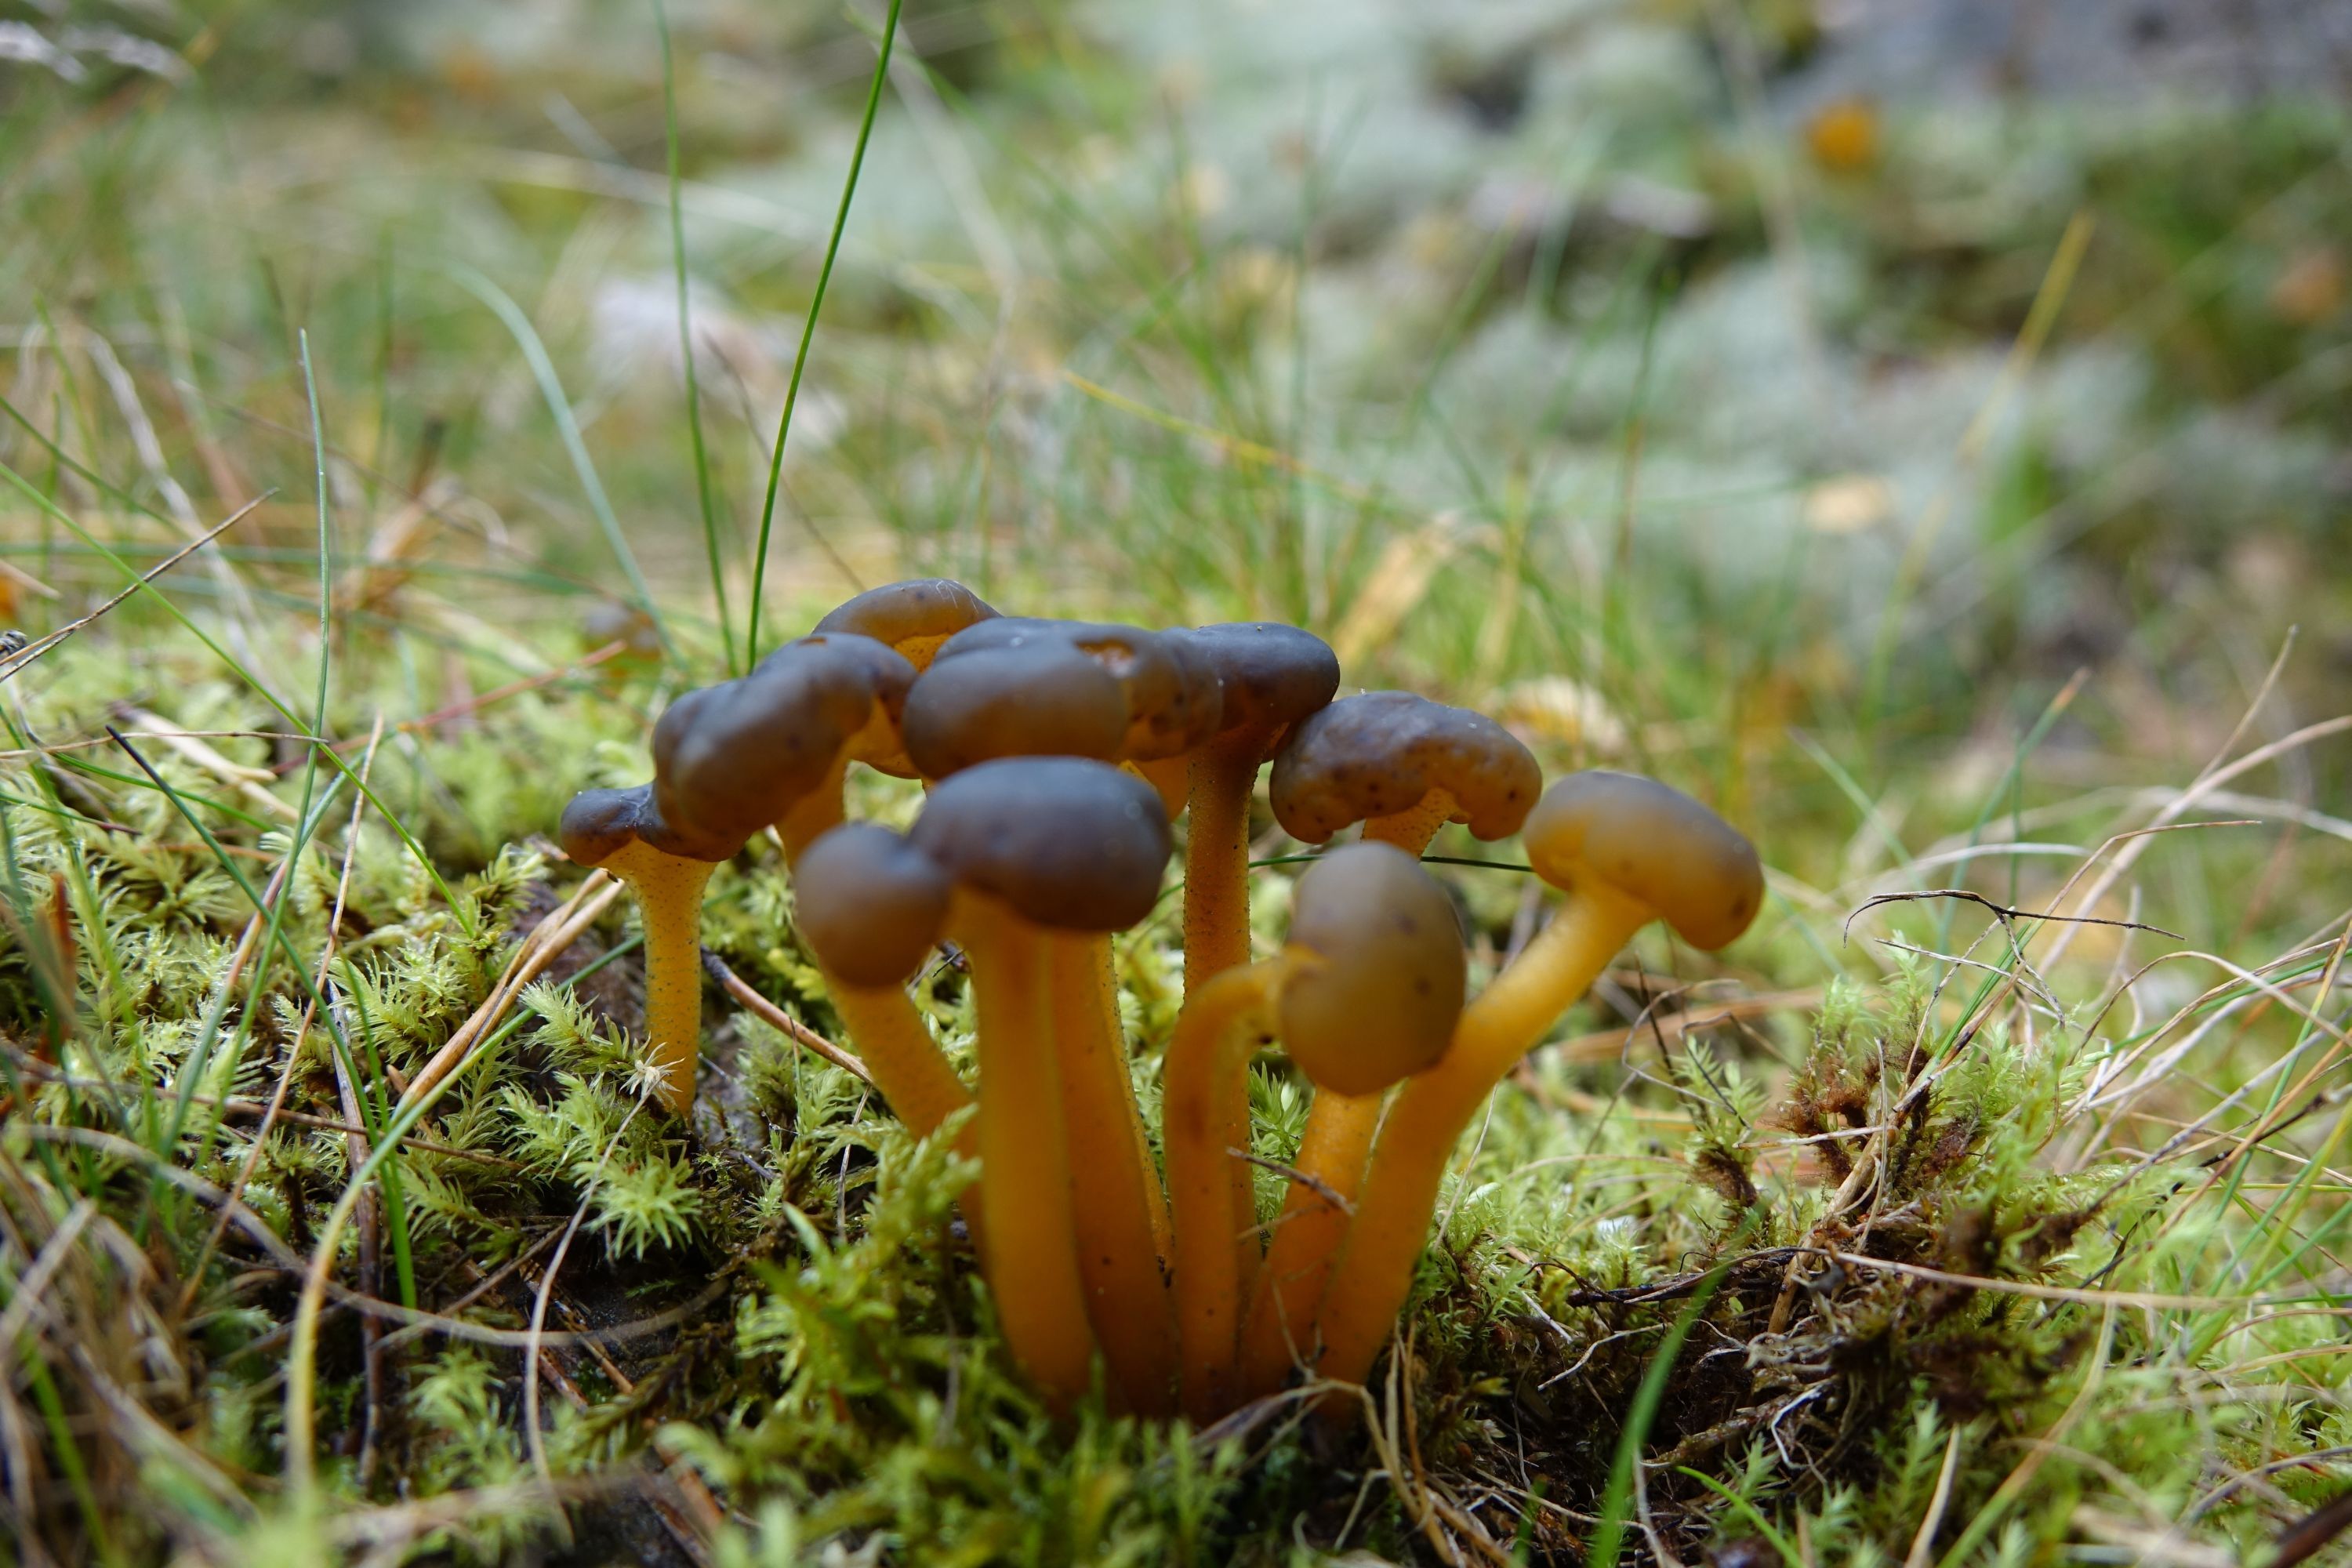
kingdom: Fungi
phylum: Ascomycota
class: Leotiomycetes
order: Leotiales
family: Leotiaceae
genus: Leotia
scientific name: Leotia lubrica
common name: Jellybaby
